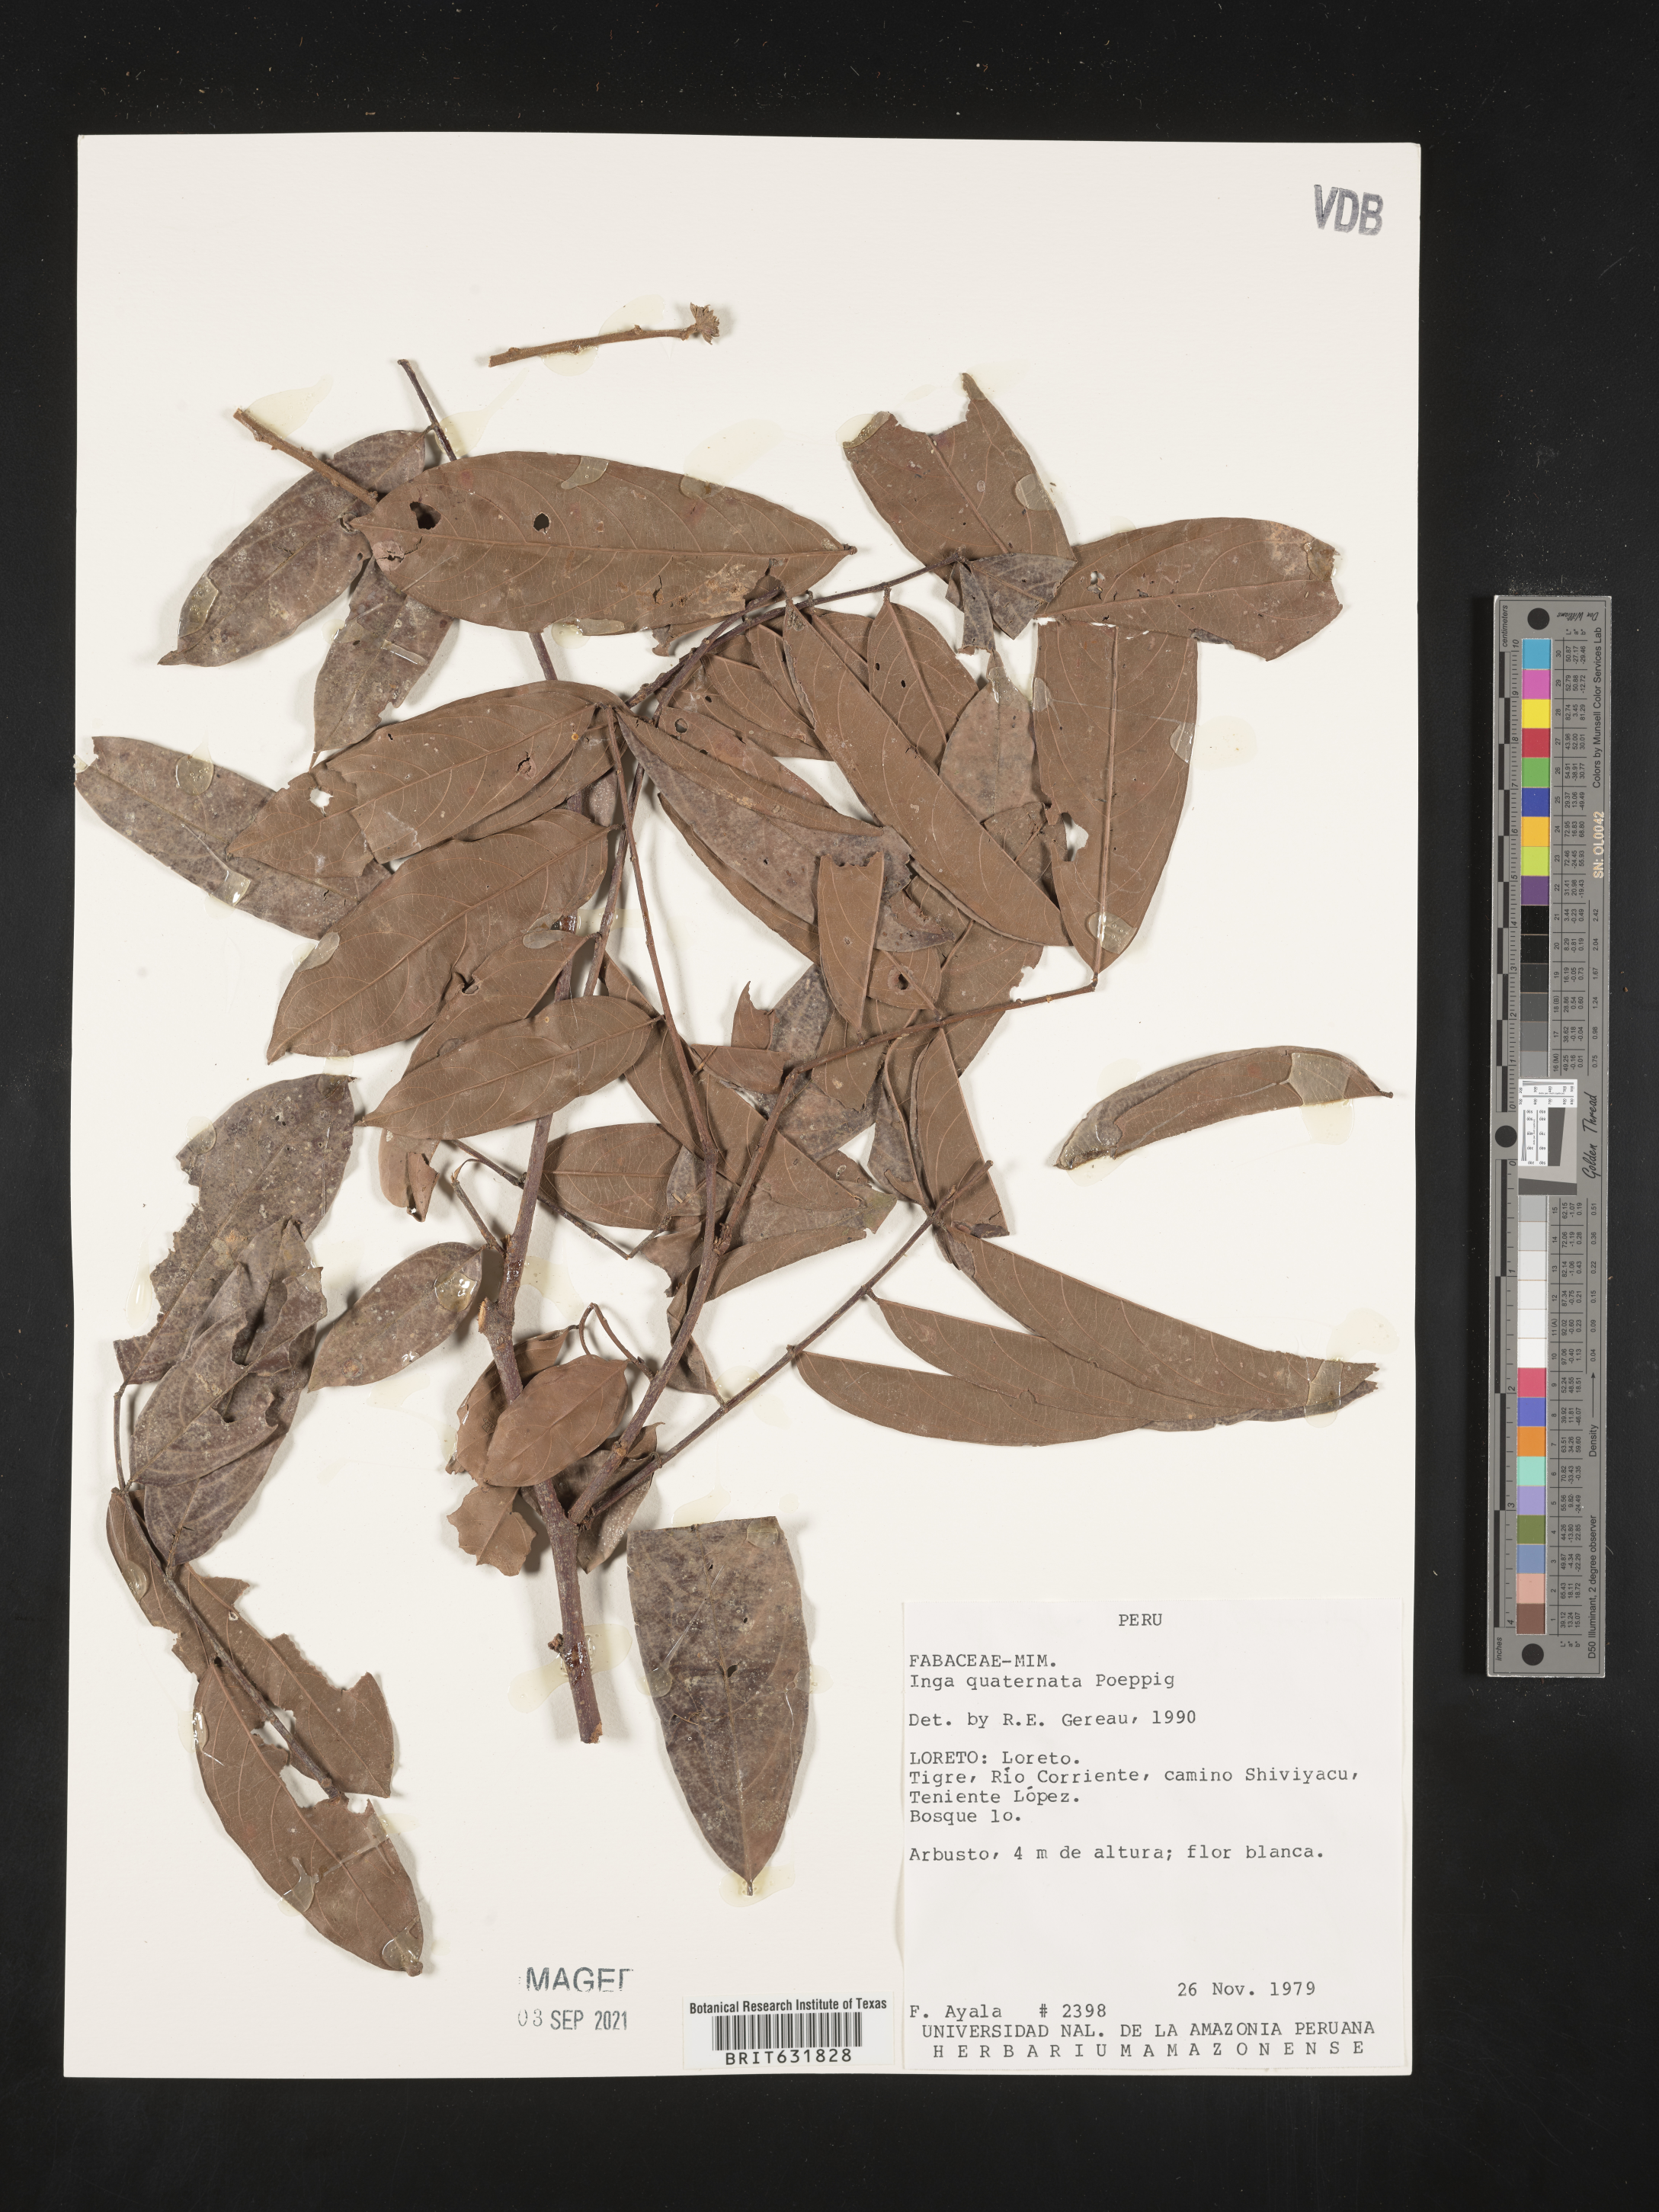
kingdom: Plantae
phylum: Tracheophyta
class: Magnoliopsida
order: Fabales
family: Fabaceae
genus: Inga
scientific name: Inga
